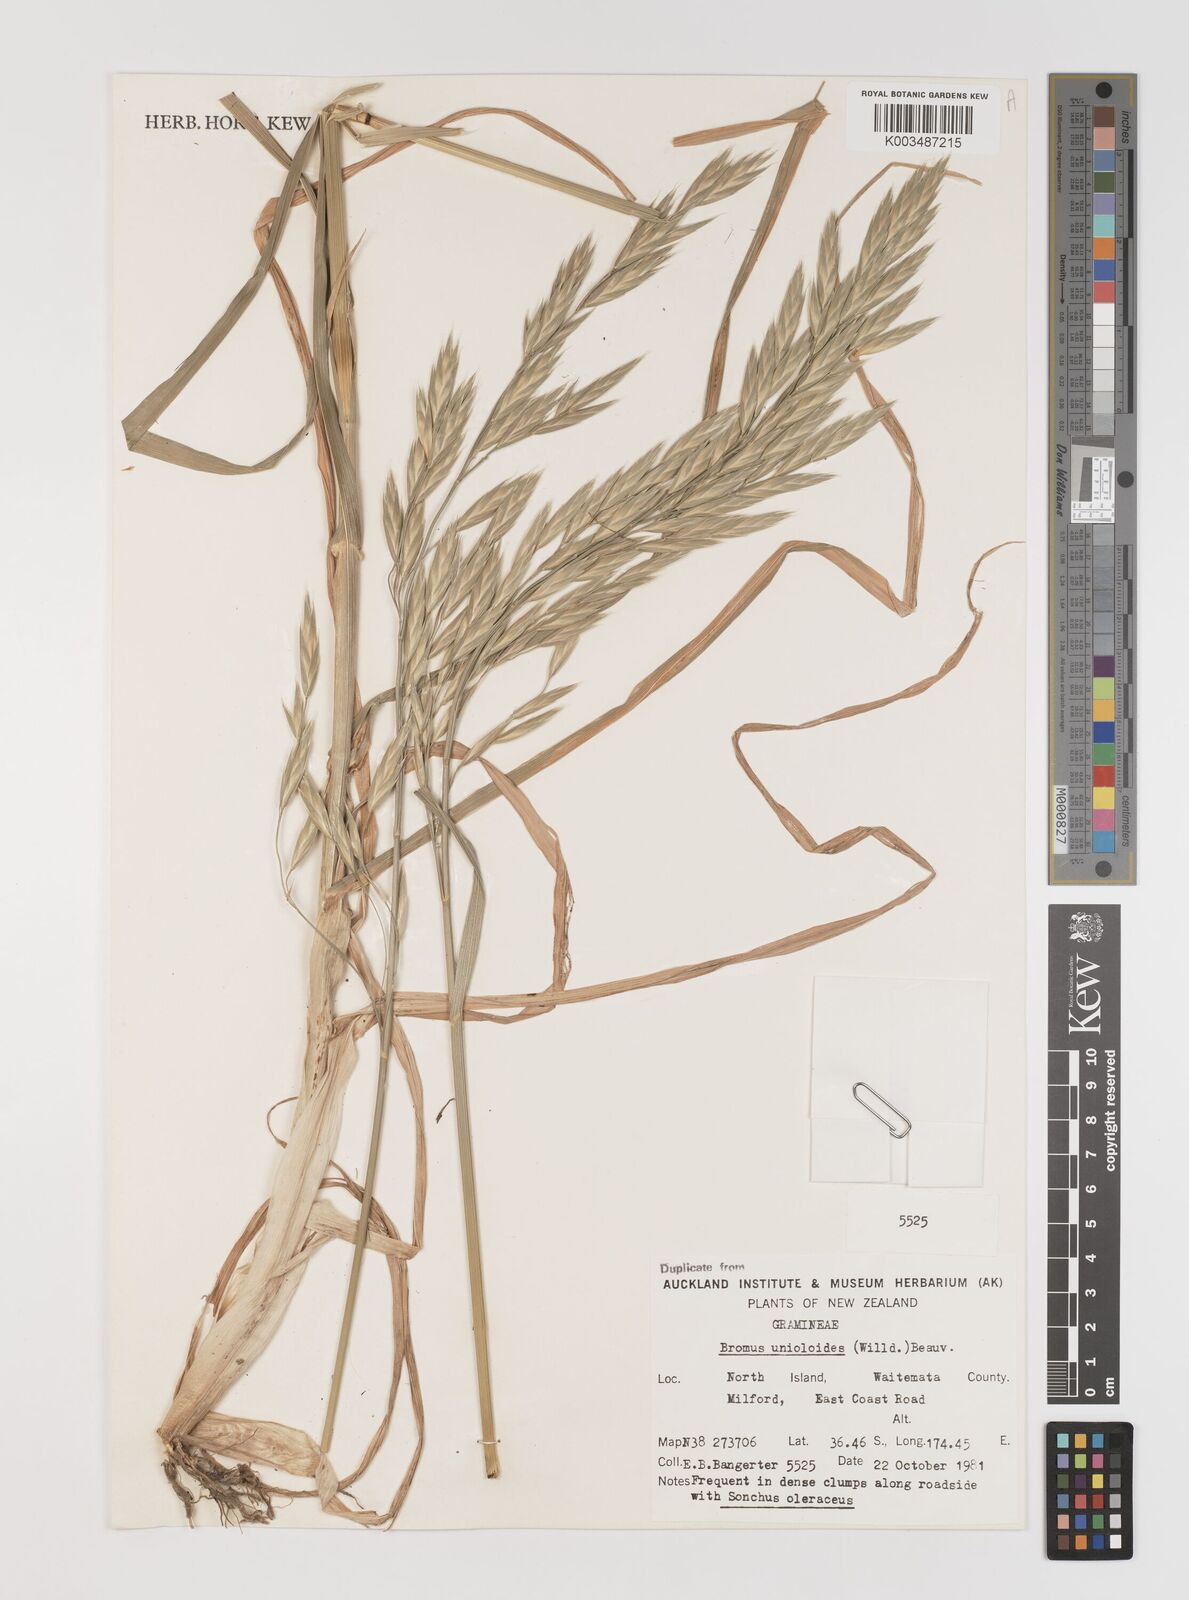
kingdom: Plantae
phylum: Tracheophyta
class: Liliopsida
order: Poales
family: Poaceae
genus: Bromus
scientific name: Bromus catharticus
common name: Rescuegrass
